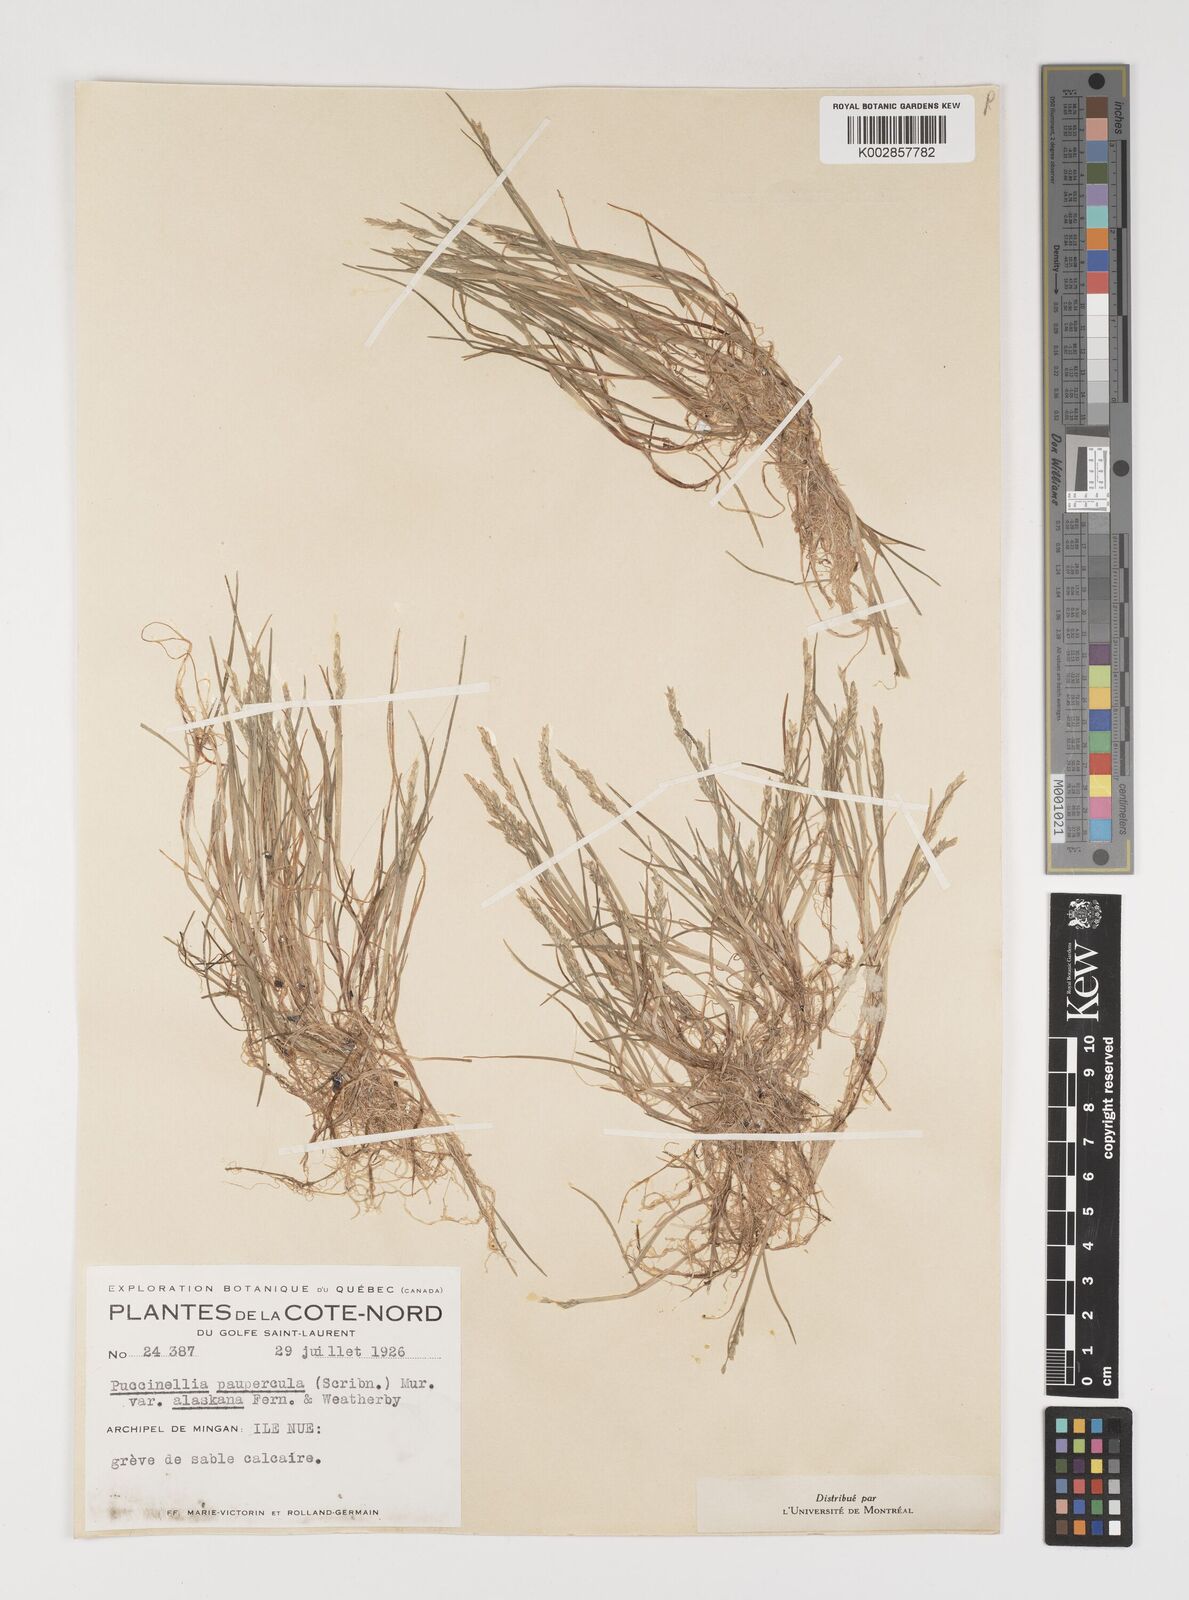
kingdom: Plantae
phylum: Tracheophyta
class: Liliopsida
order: Poales
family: Poaceae
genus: Puccinellia
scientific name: Puccinellia pumila
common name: Dwarf alkaligrass
